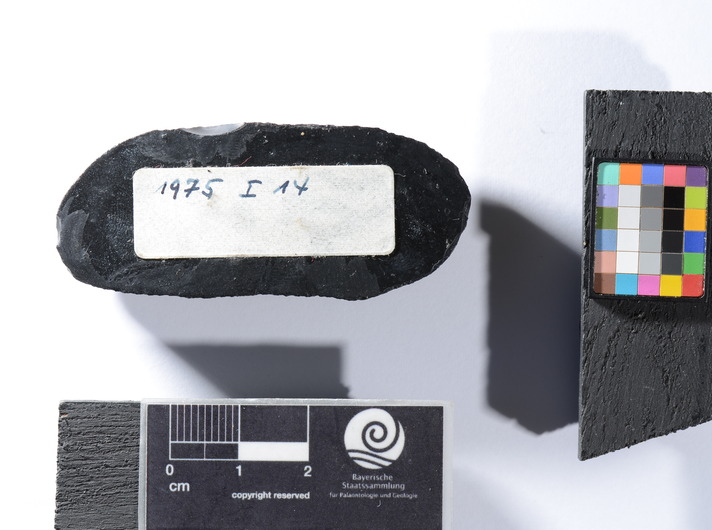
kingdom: Animalia
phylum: Chordata
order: Salmoniformes
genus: Thaumaturus
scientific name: Thaumaturus
